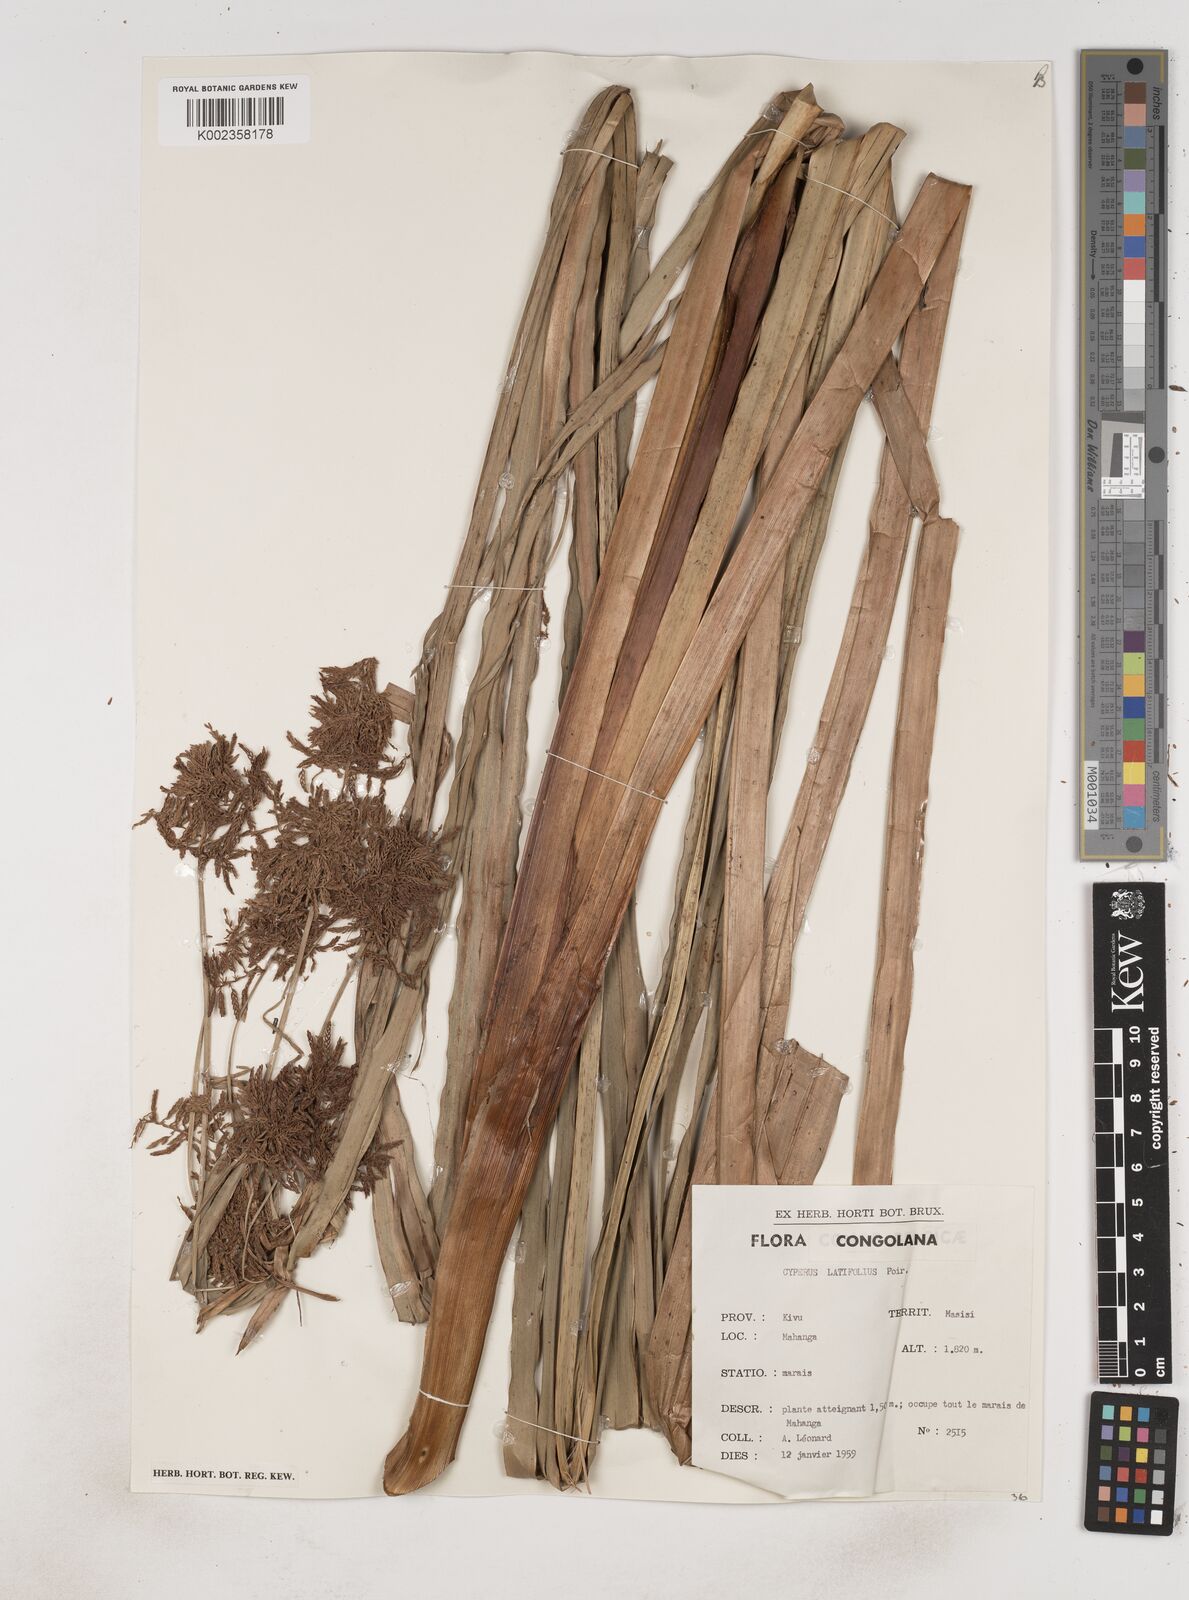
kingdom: Plantae
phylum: Tracheophyta
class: Liliopsida
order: Poales
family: Cyperaceae
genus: Cyperus
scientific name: Cyperus latifolius
